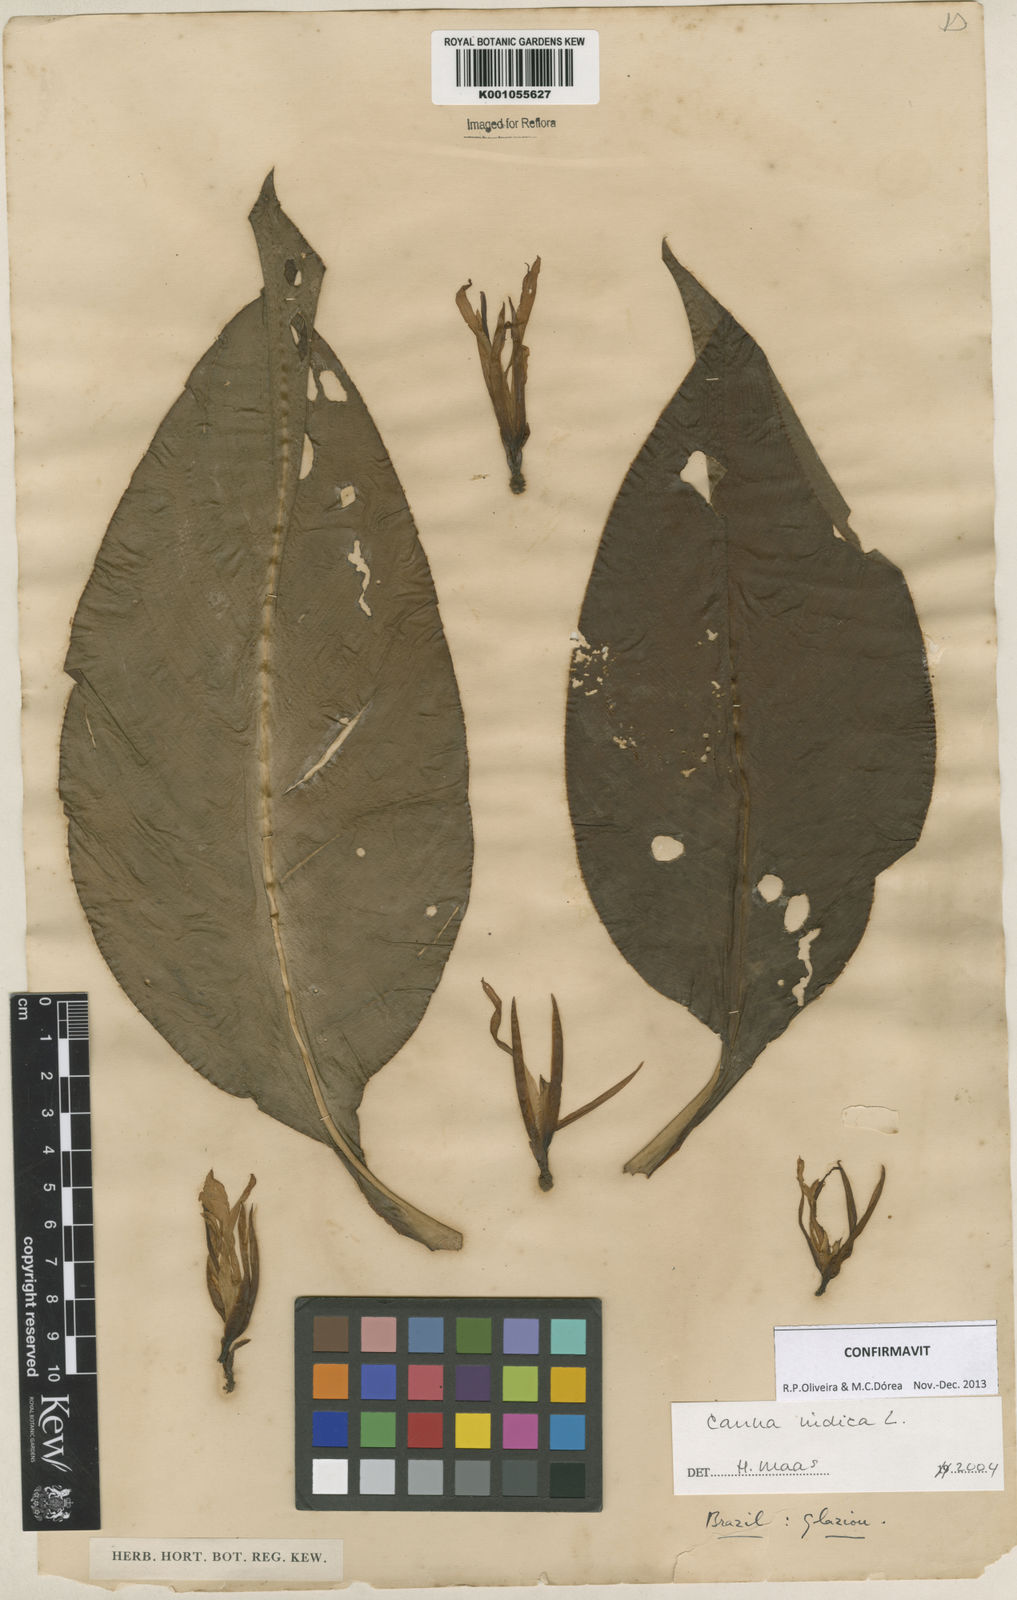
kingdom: Plantae
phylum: Tracheophyta
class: Liliopsida
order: Zingiberales
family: Cannaceae
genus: Canna
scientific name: Canna indica
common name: Indian shot
